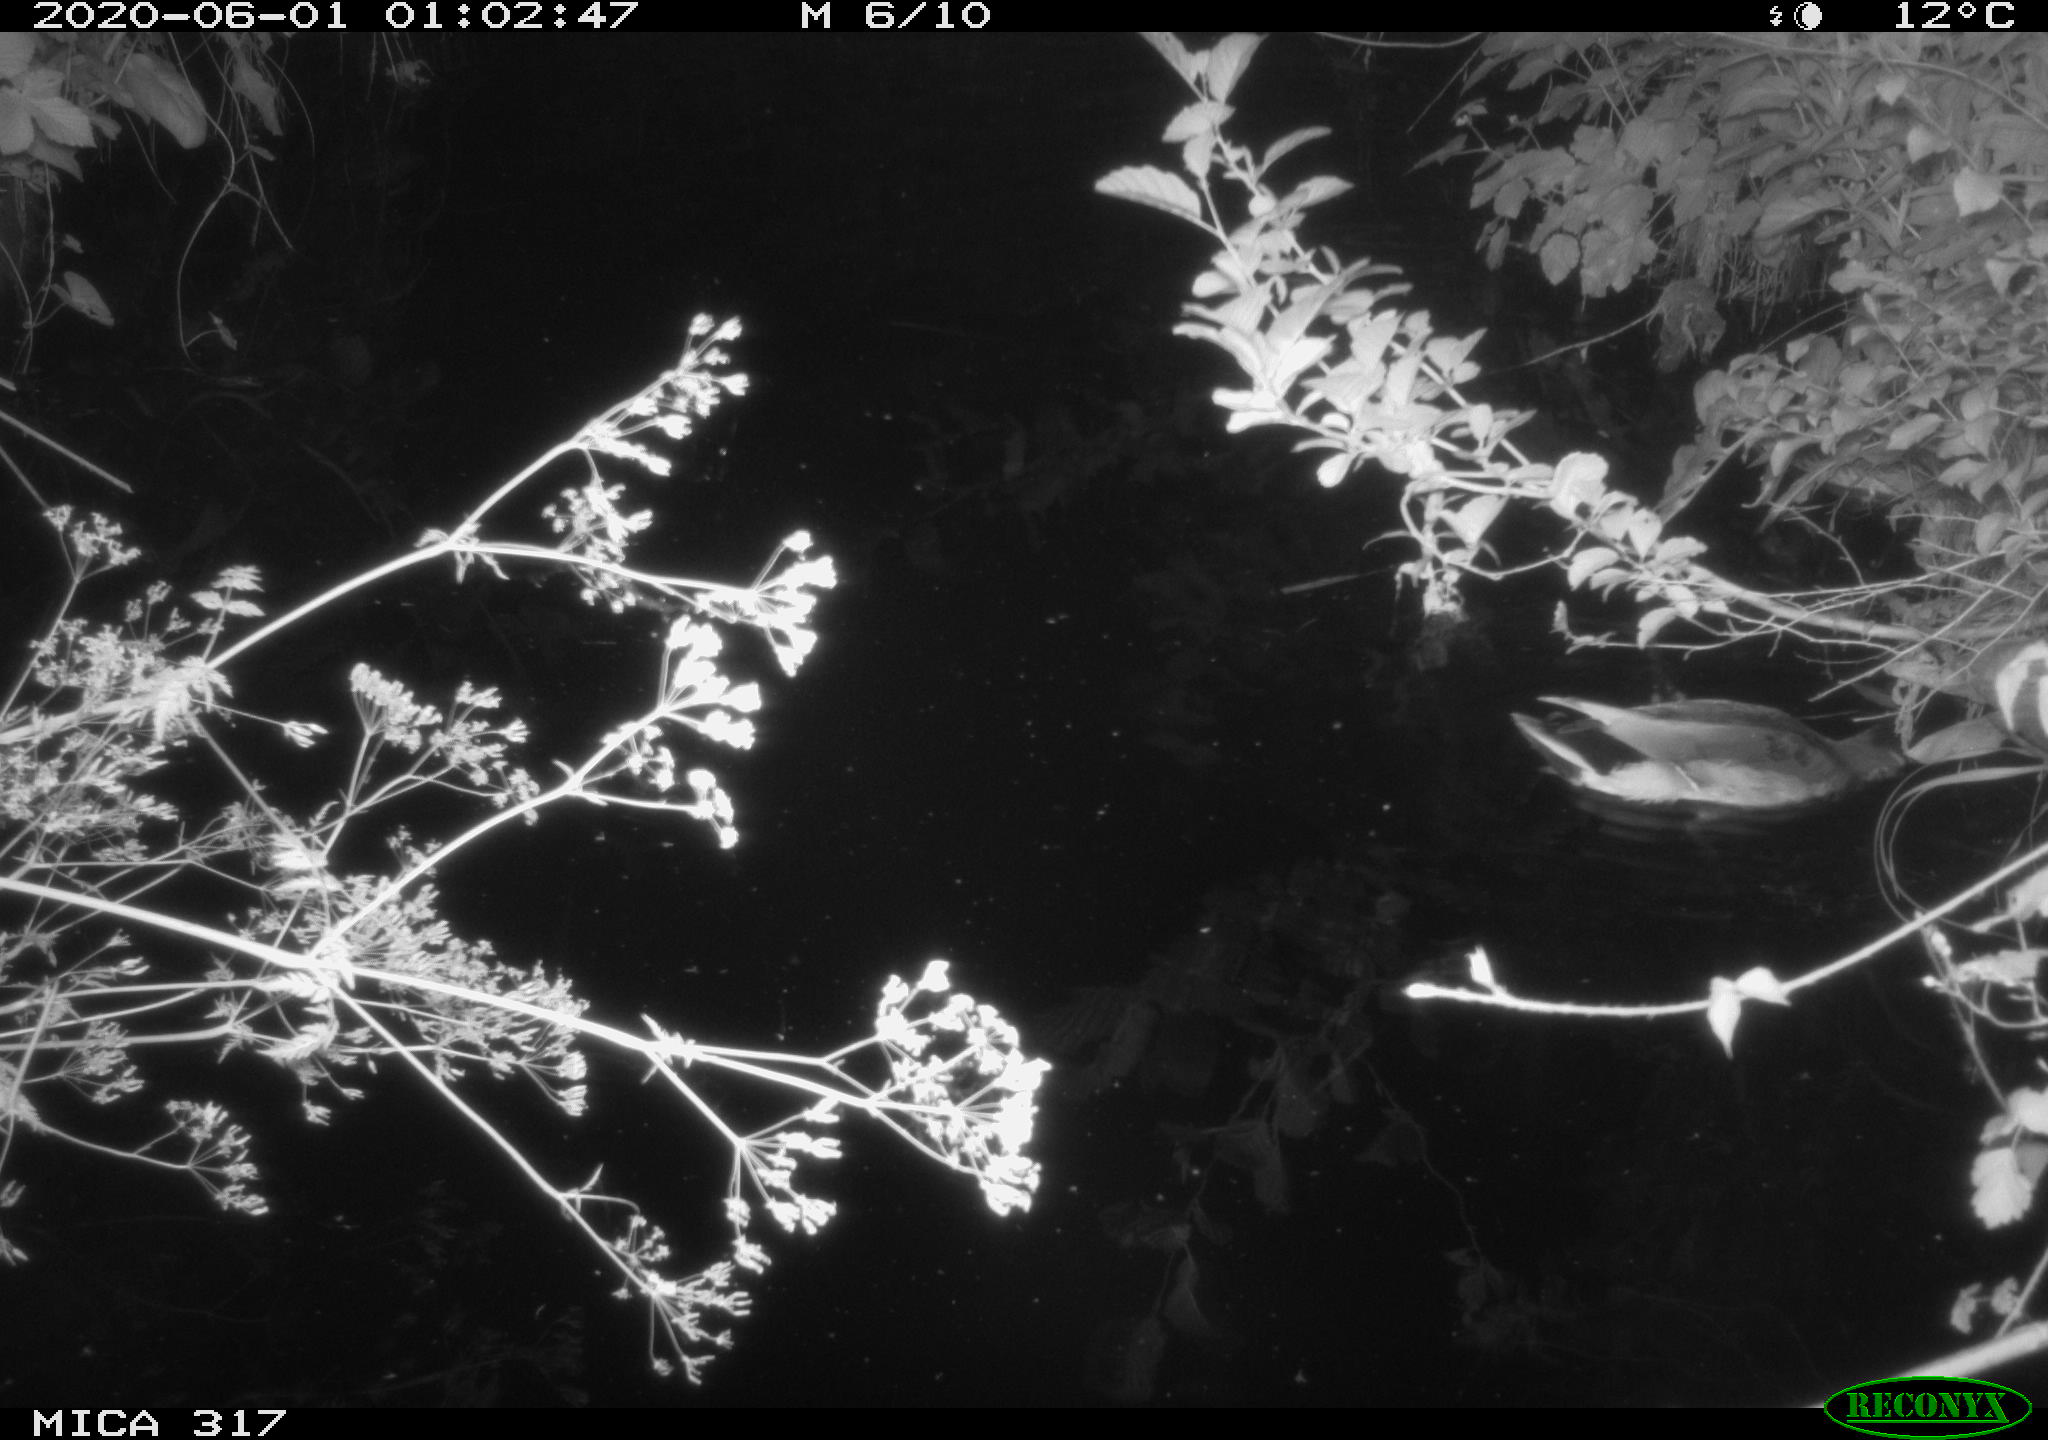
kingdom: Animalia
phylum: Chordata
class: Aves
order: Anseriformes
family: Anatidae
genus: Anas
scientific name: Anas platyrhynchos
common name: Mallard
